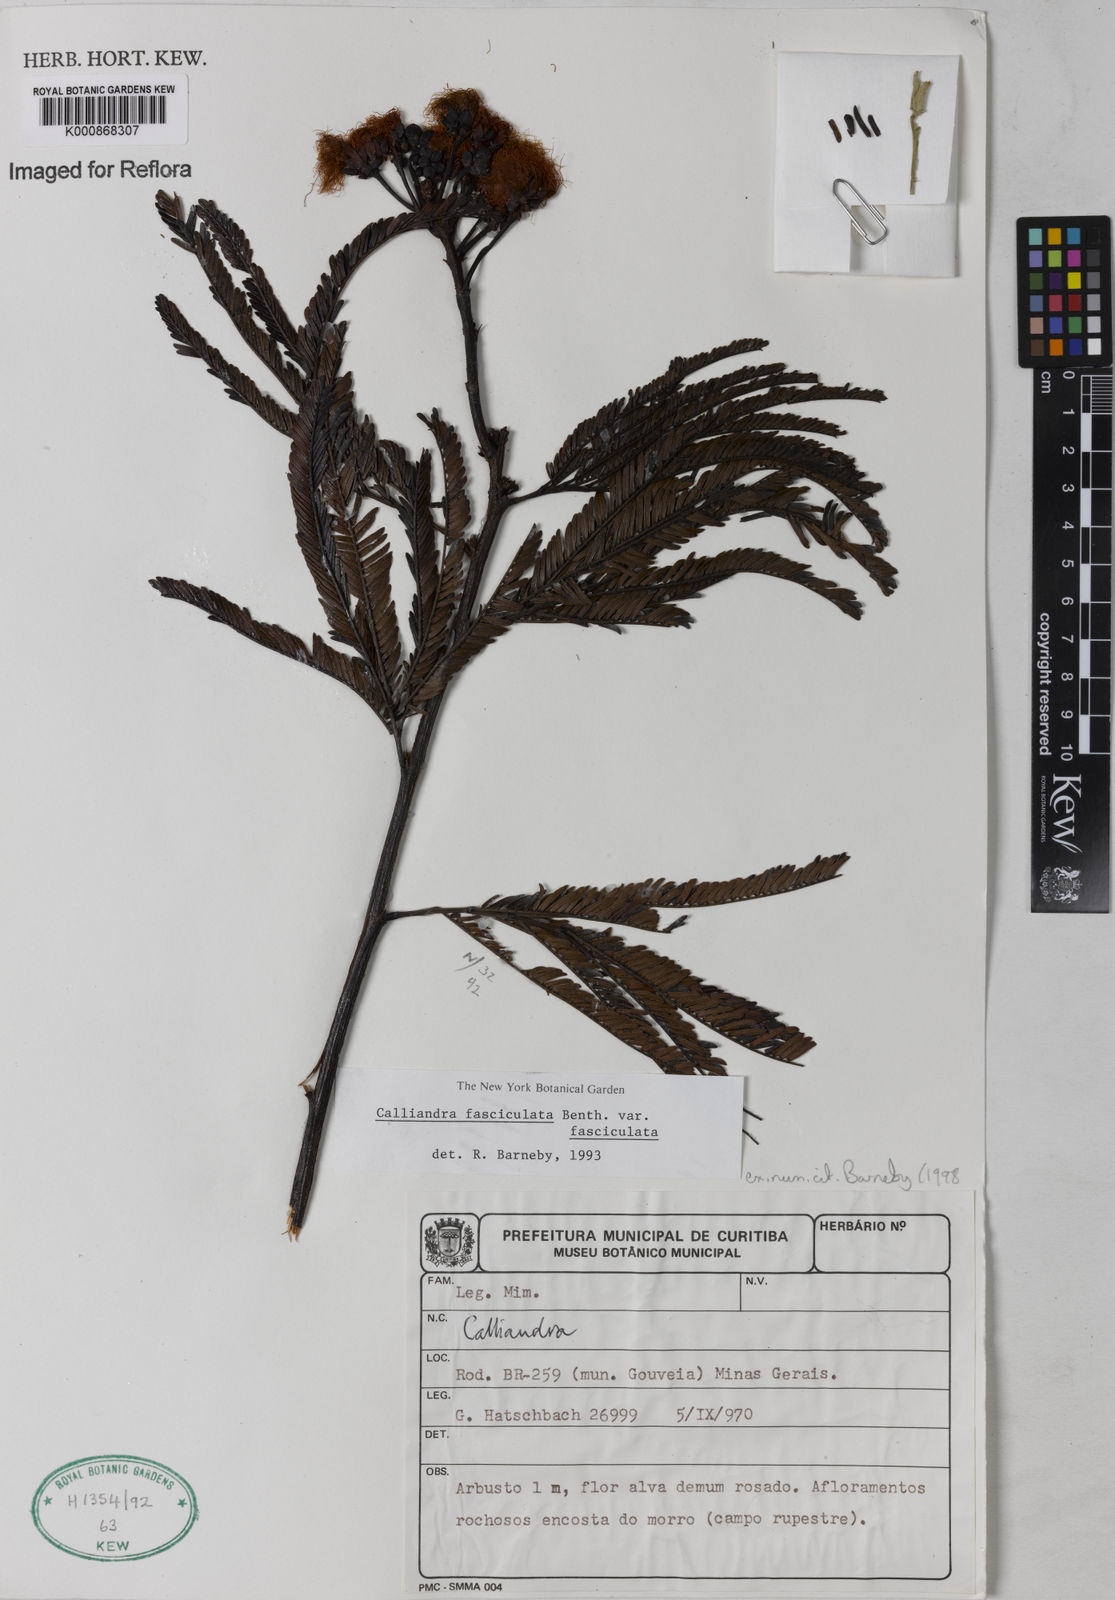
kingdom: Plantae
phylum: Tracheophyta
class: Magnoliopsida
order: Fabales
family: Fabaceae
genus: Calliandra
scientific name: Calliandra fasciculata
